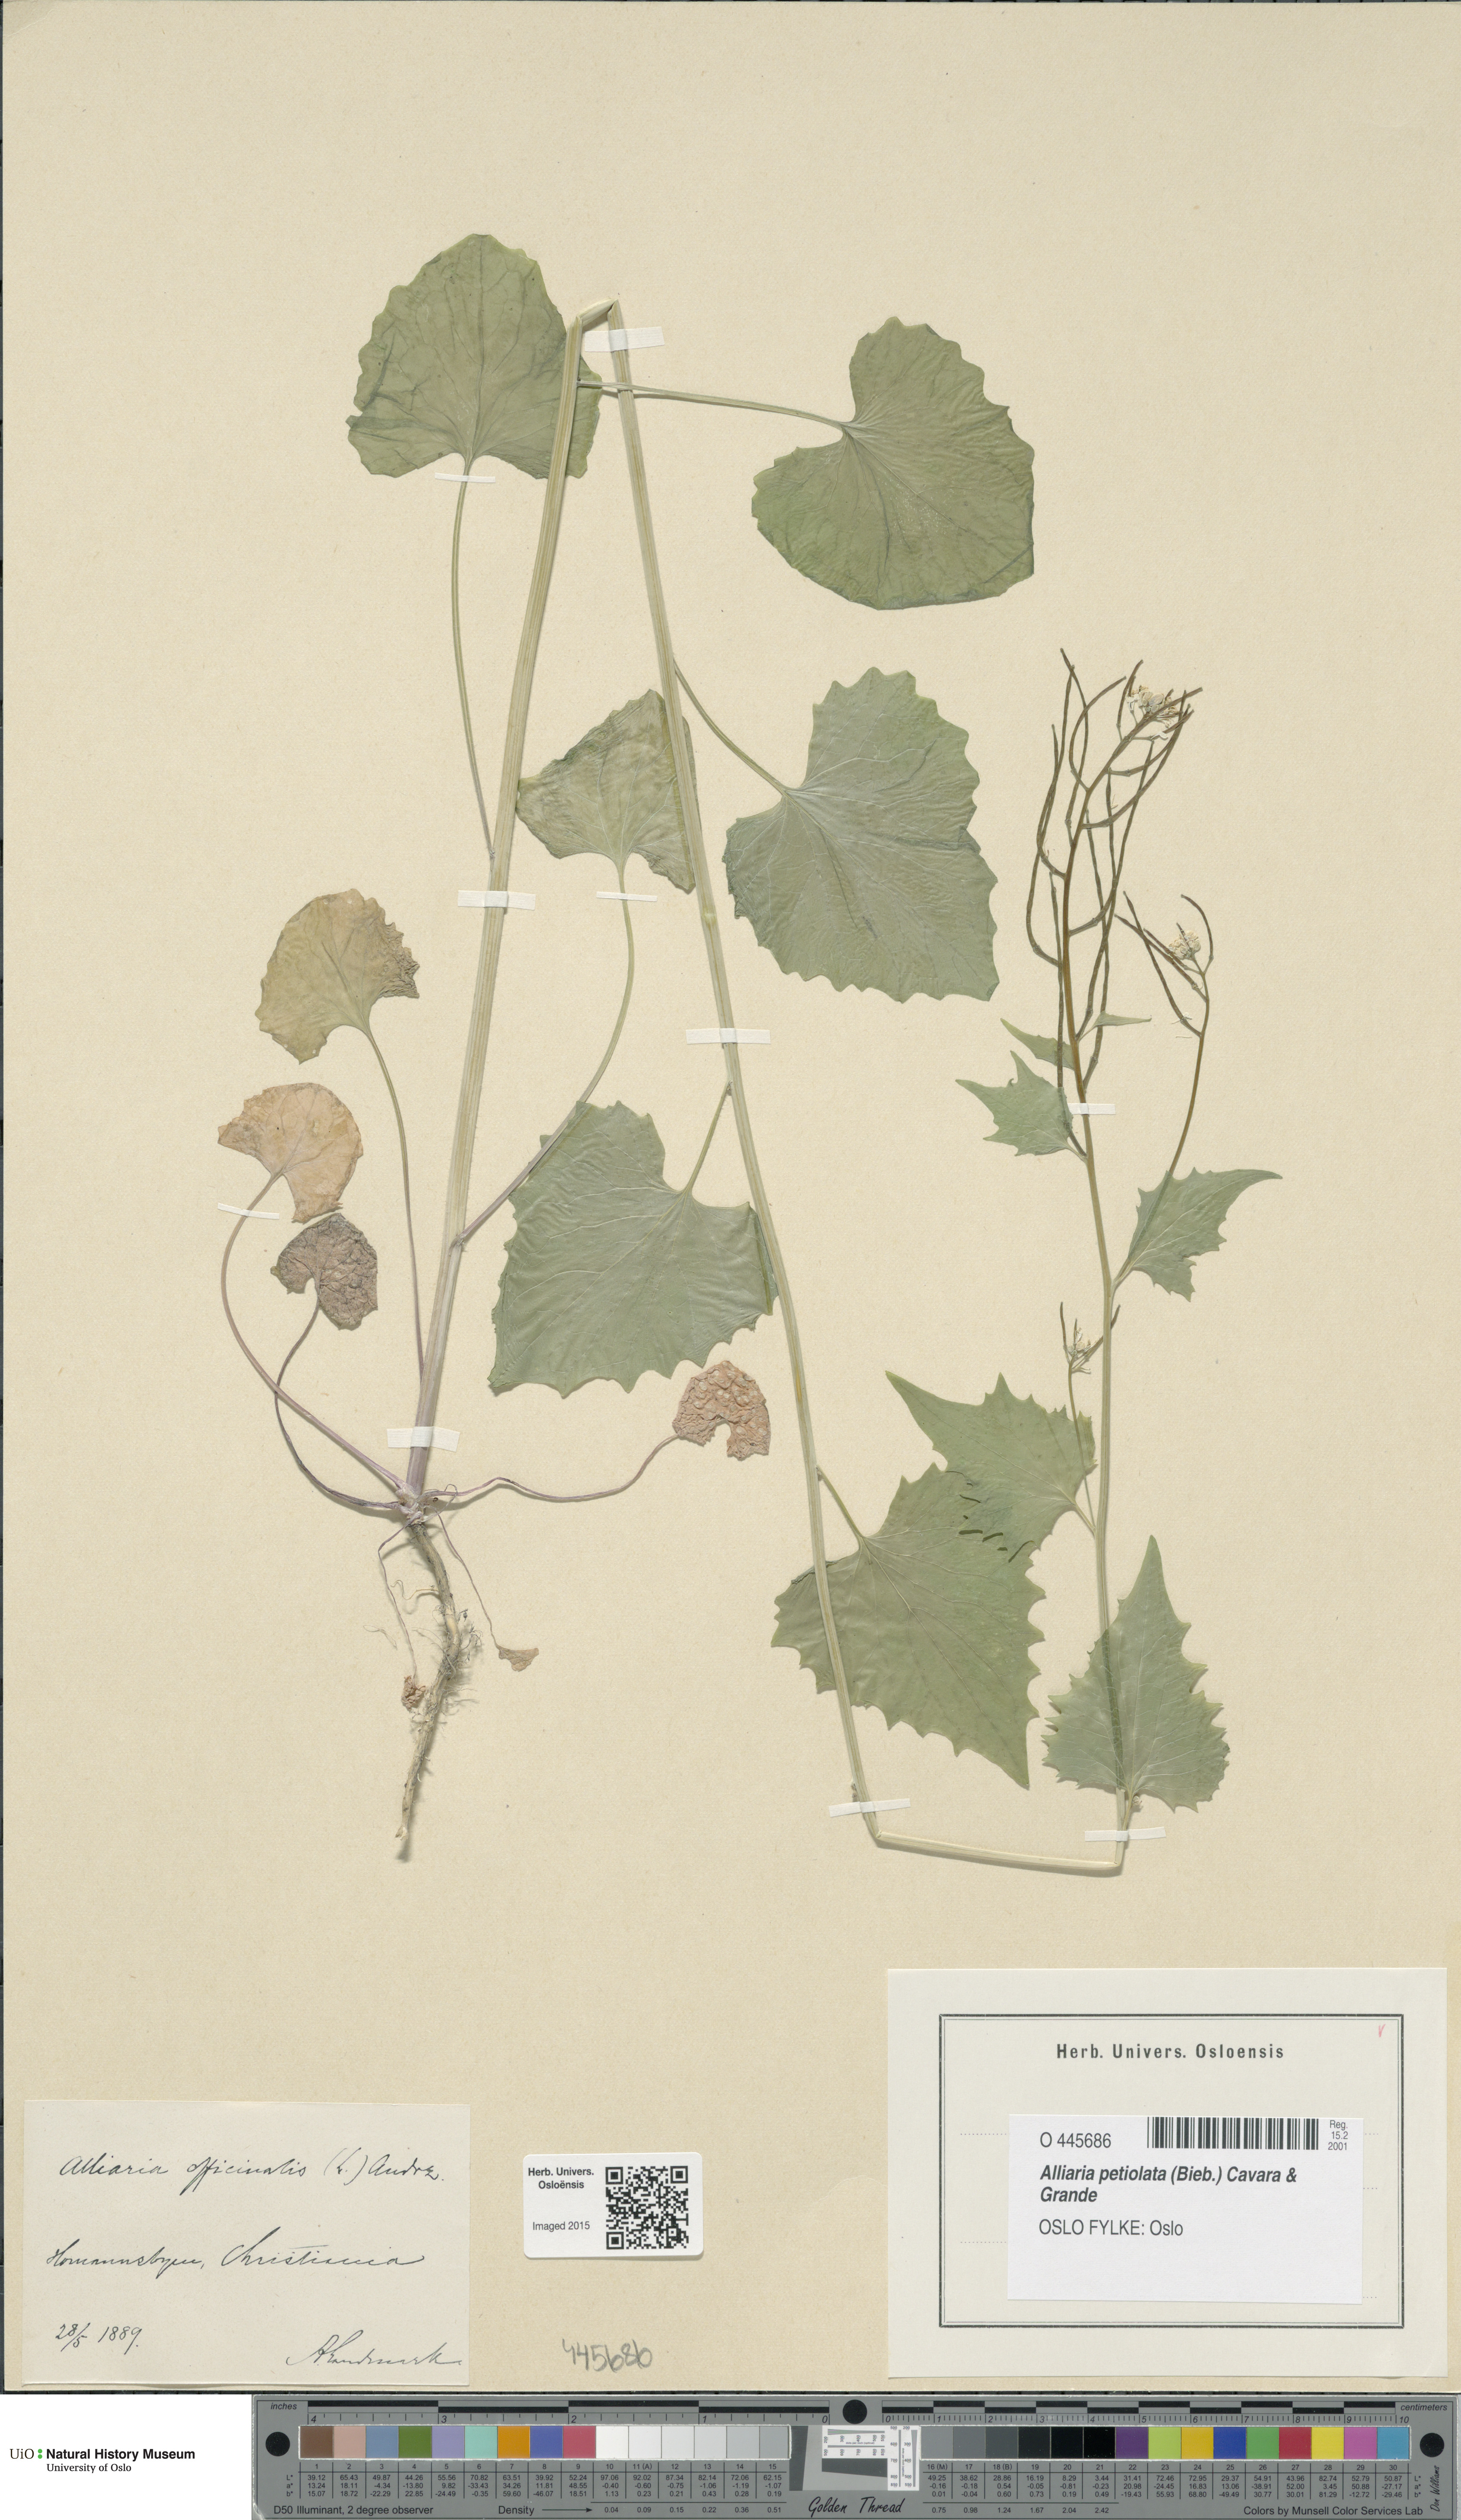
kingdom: Plantae
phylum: Tracheophyta
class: Magnoliopsida
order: Brassicales
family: Brassicaceae
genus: Alliaria
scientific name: Alliaria petiolata
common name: Garlic mustard
